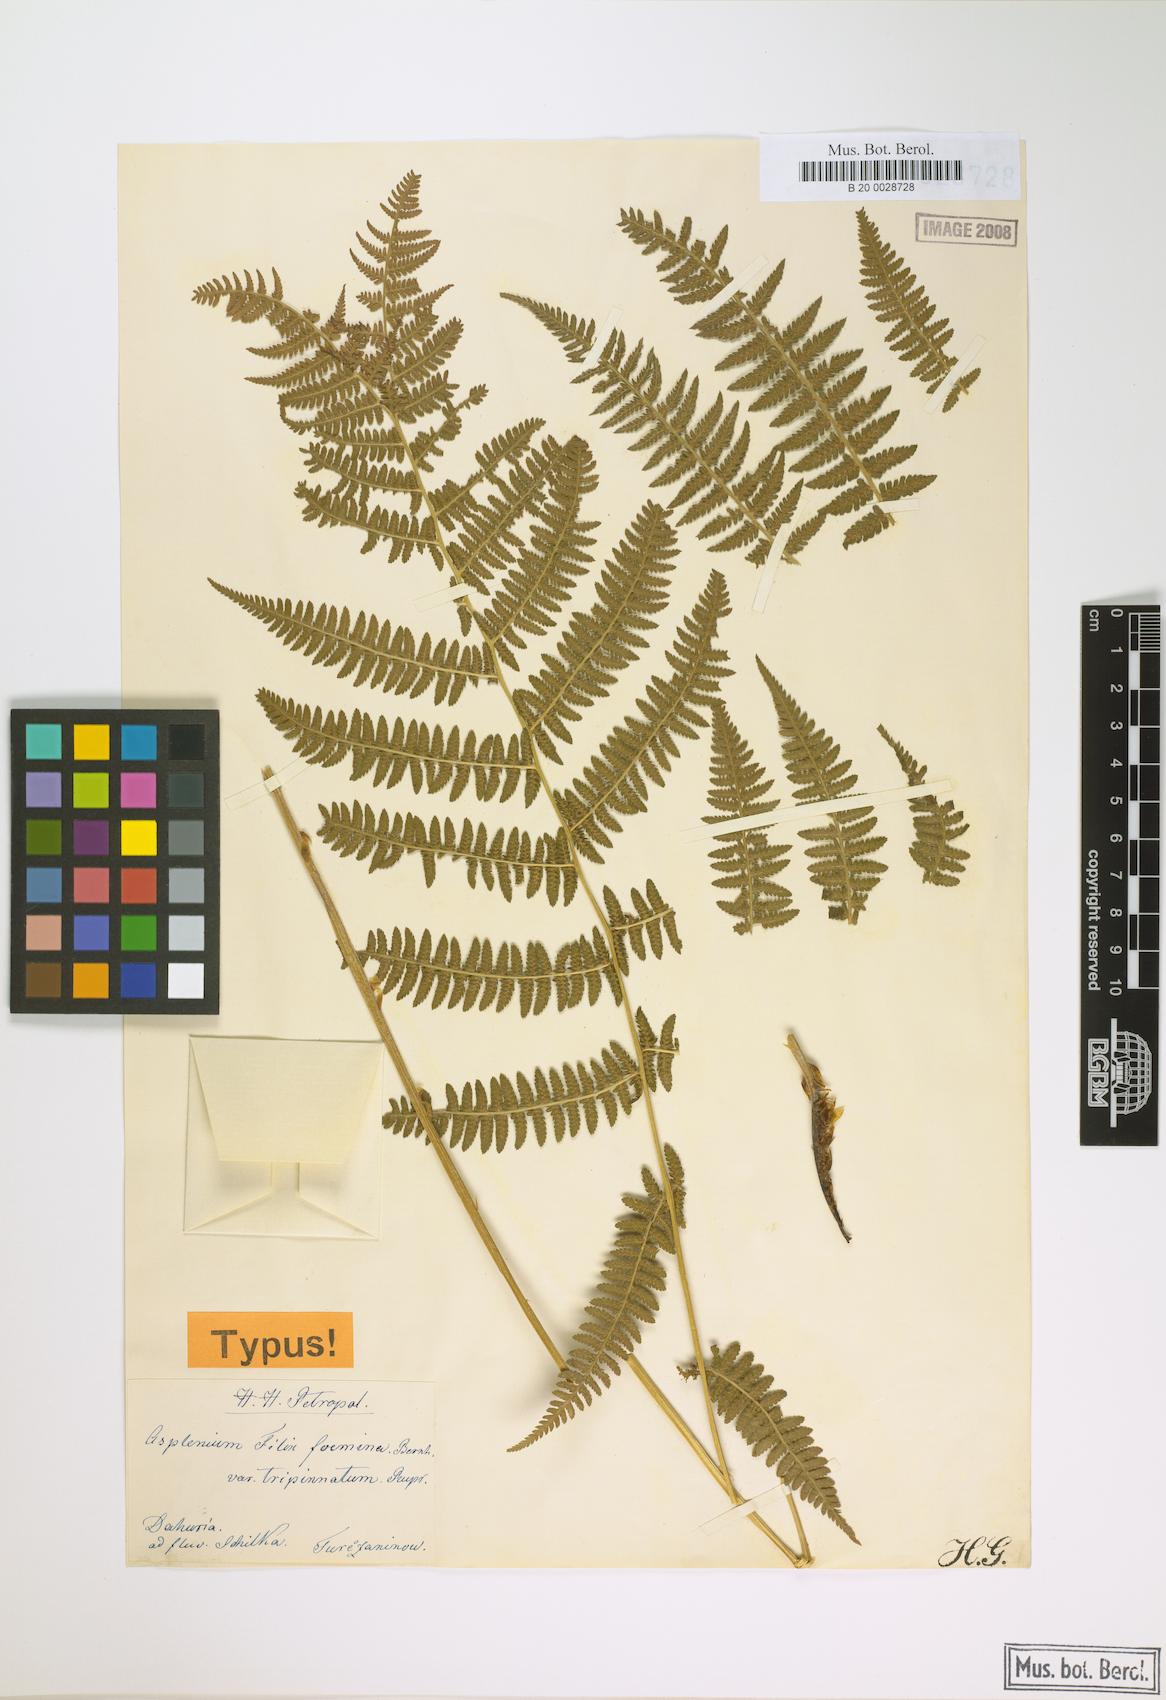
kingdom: Plantae
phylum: Tracheophyta
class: Polypodiopsida
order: Polypodiales
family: Athyriaceae
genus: Athyrium
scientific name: Athyrium filix-femina
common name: Lady fern
